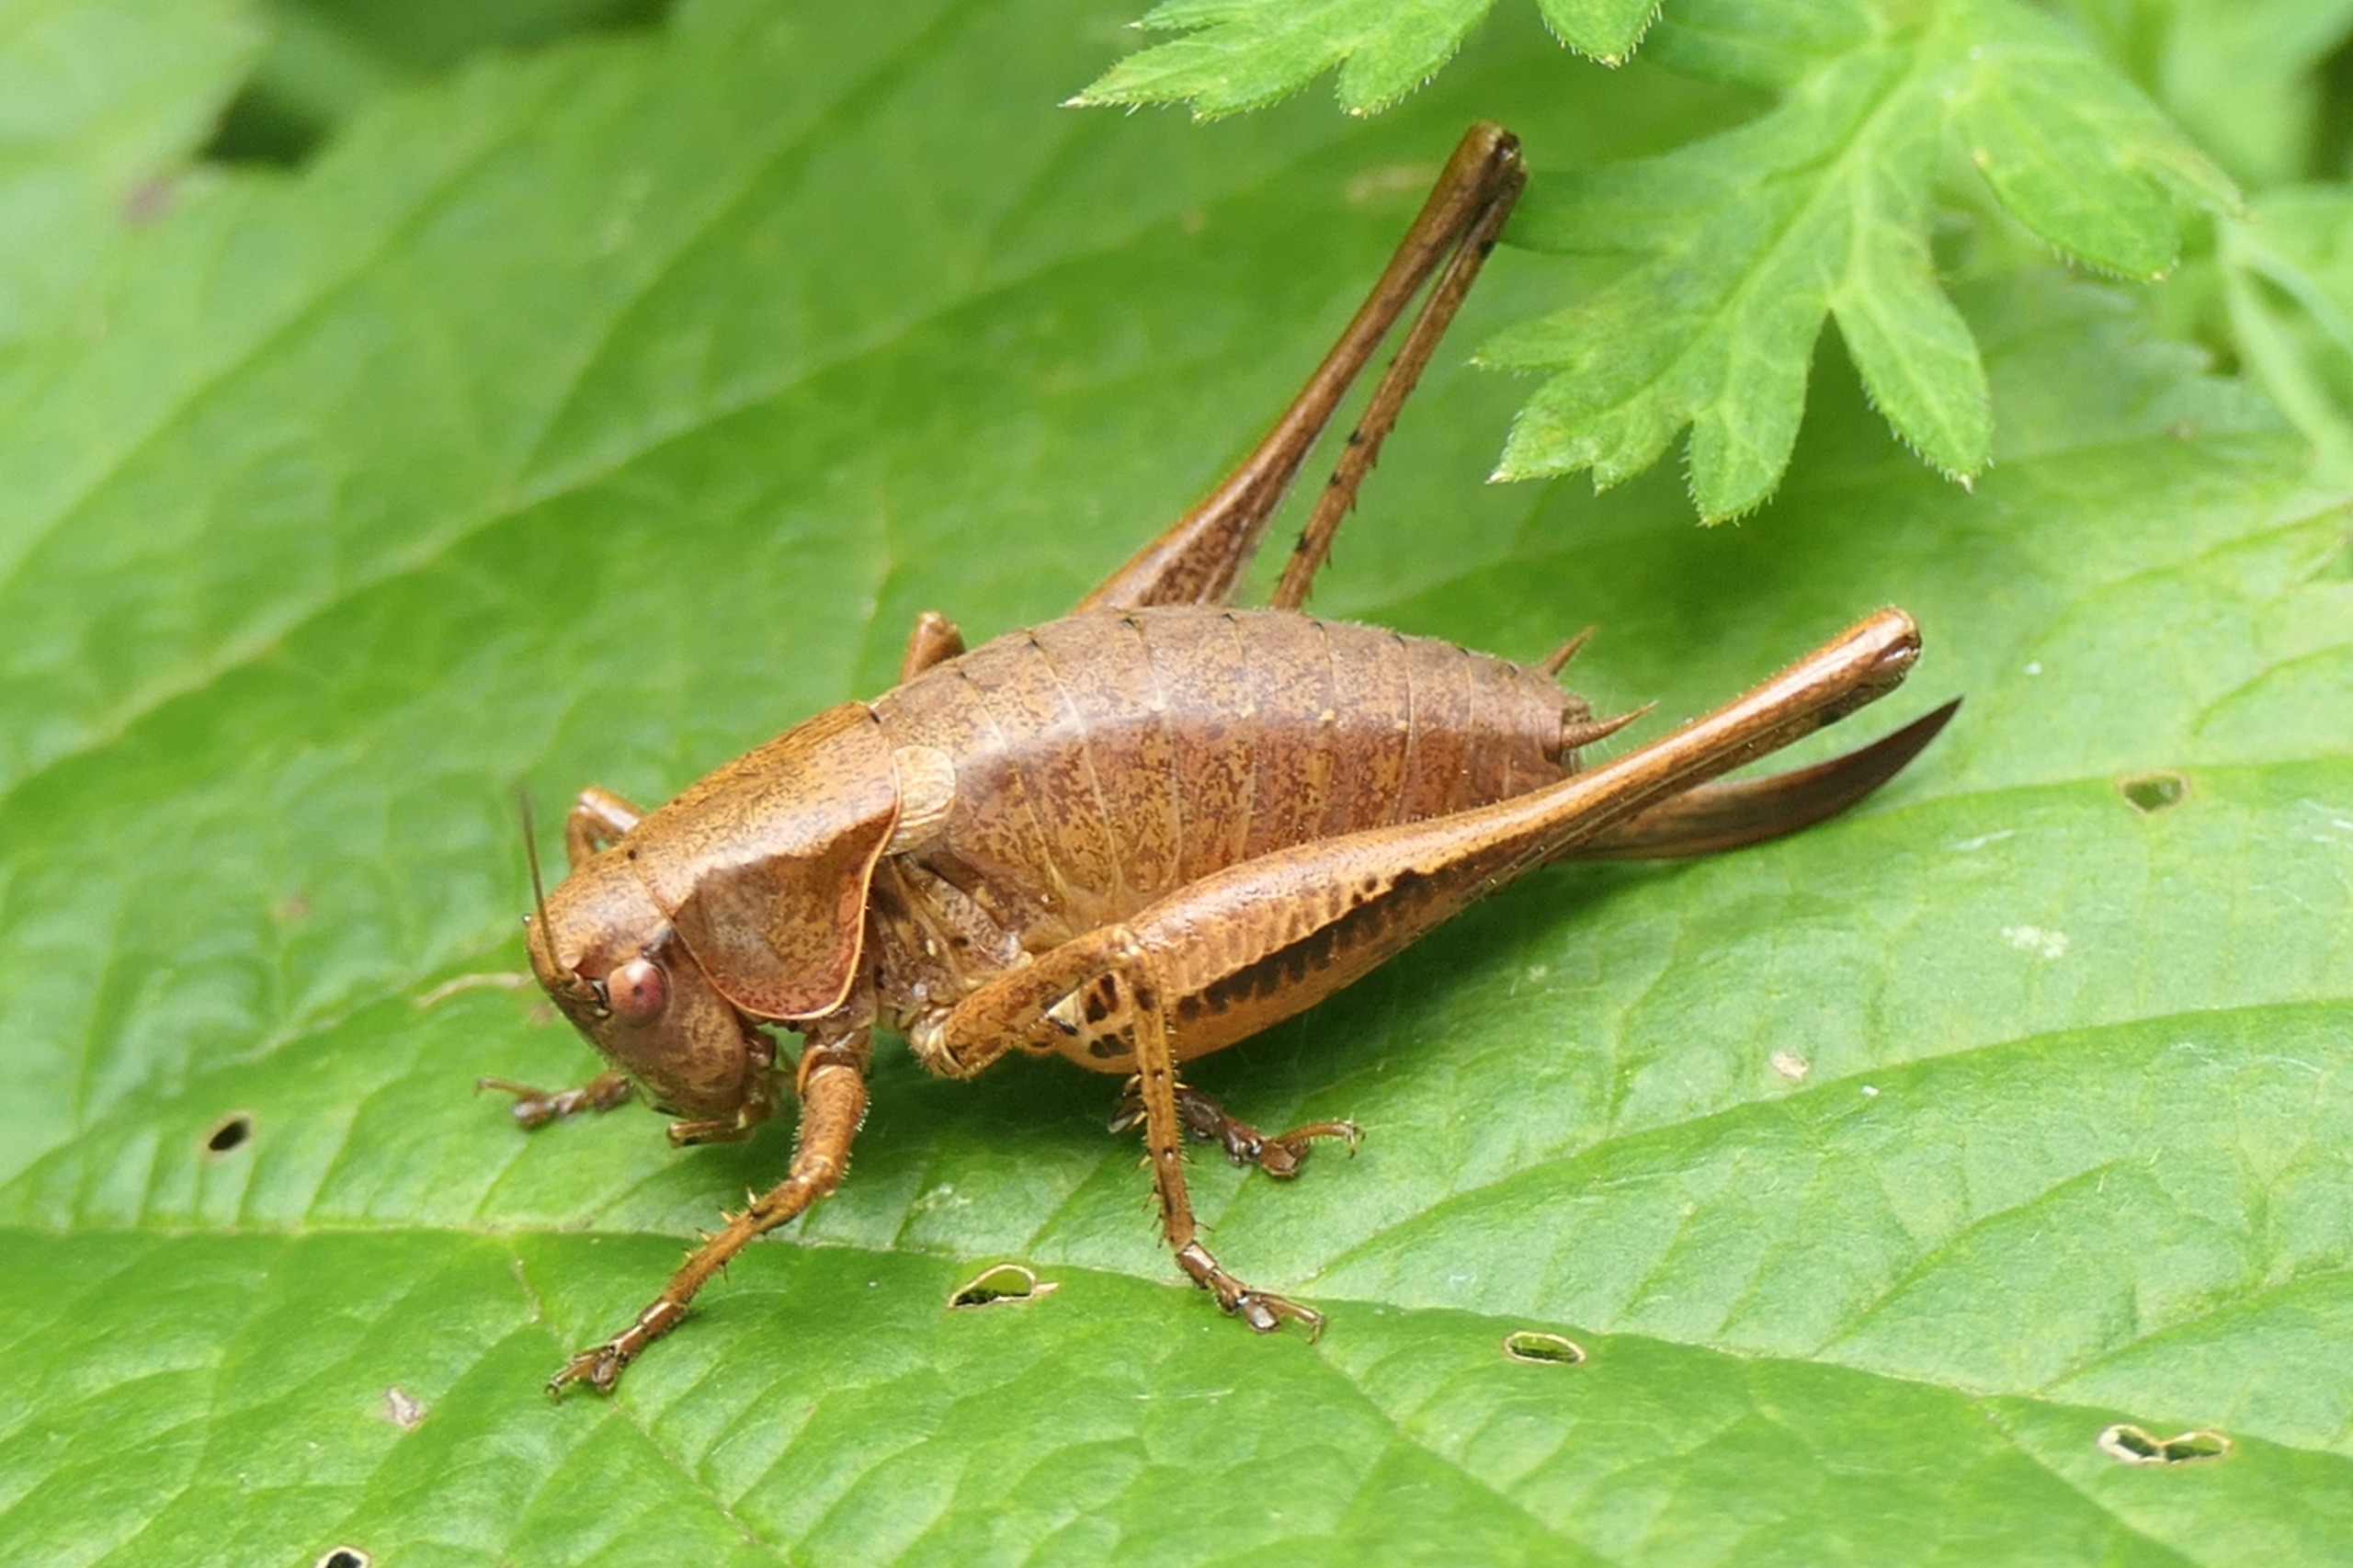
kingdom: Animalia
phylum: Arthropoda
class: Insecta
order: Orthoptera
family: Tettigoniidae
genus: Pholidoptera
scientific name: Pholidoptera griseoaptera
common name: Buskgræshoppe
